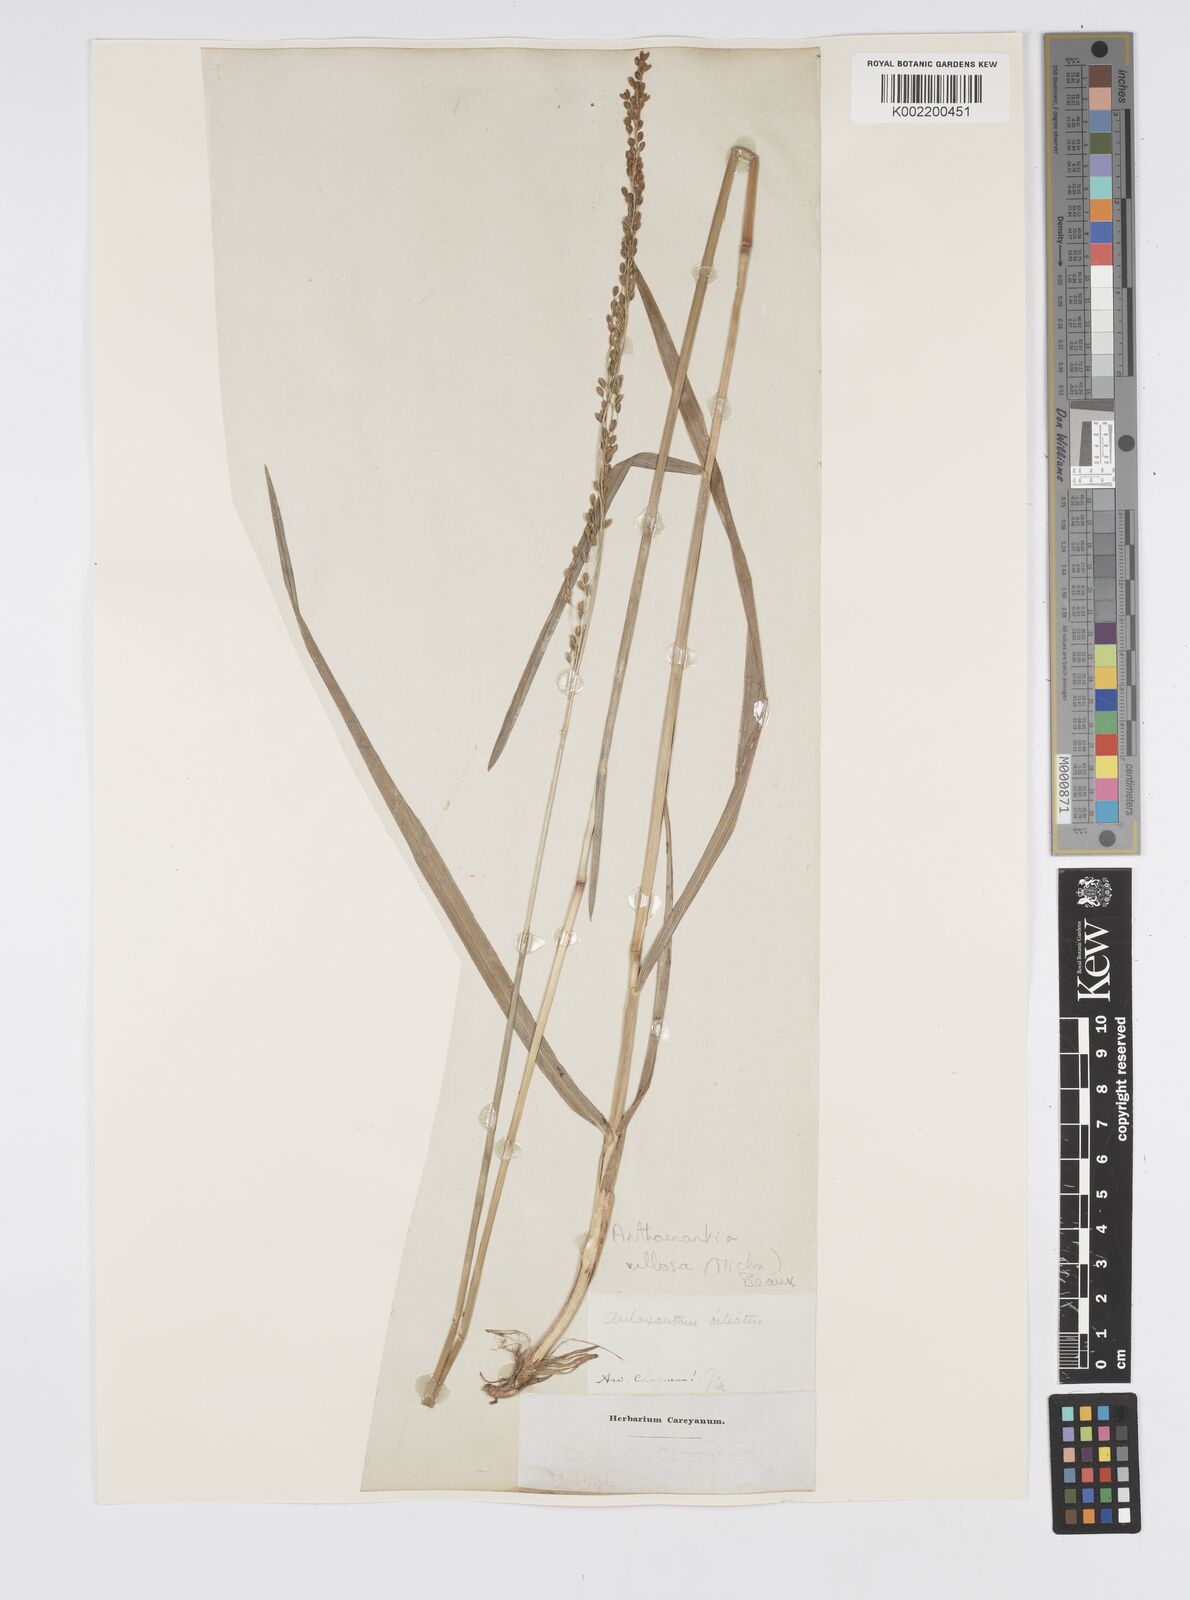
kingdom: Plantae
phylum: Tracheophyta
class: Liliopsida
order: Poales
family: Poaceae
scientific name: Poaceae
